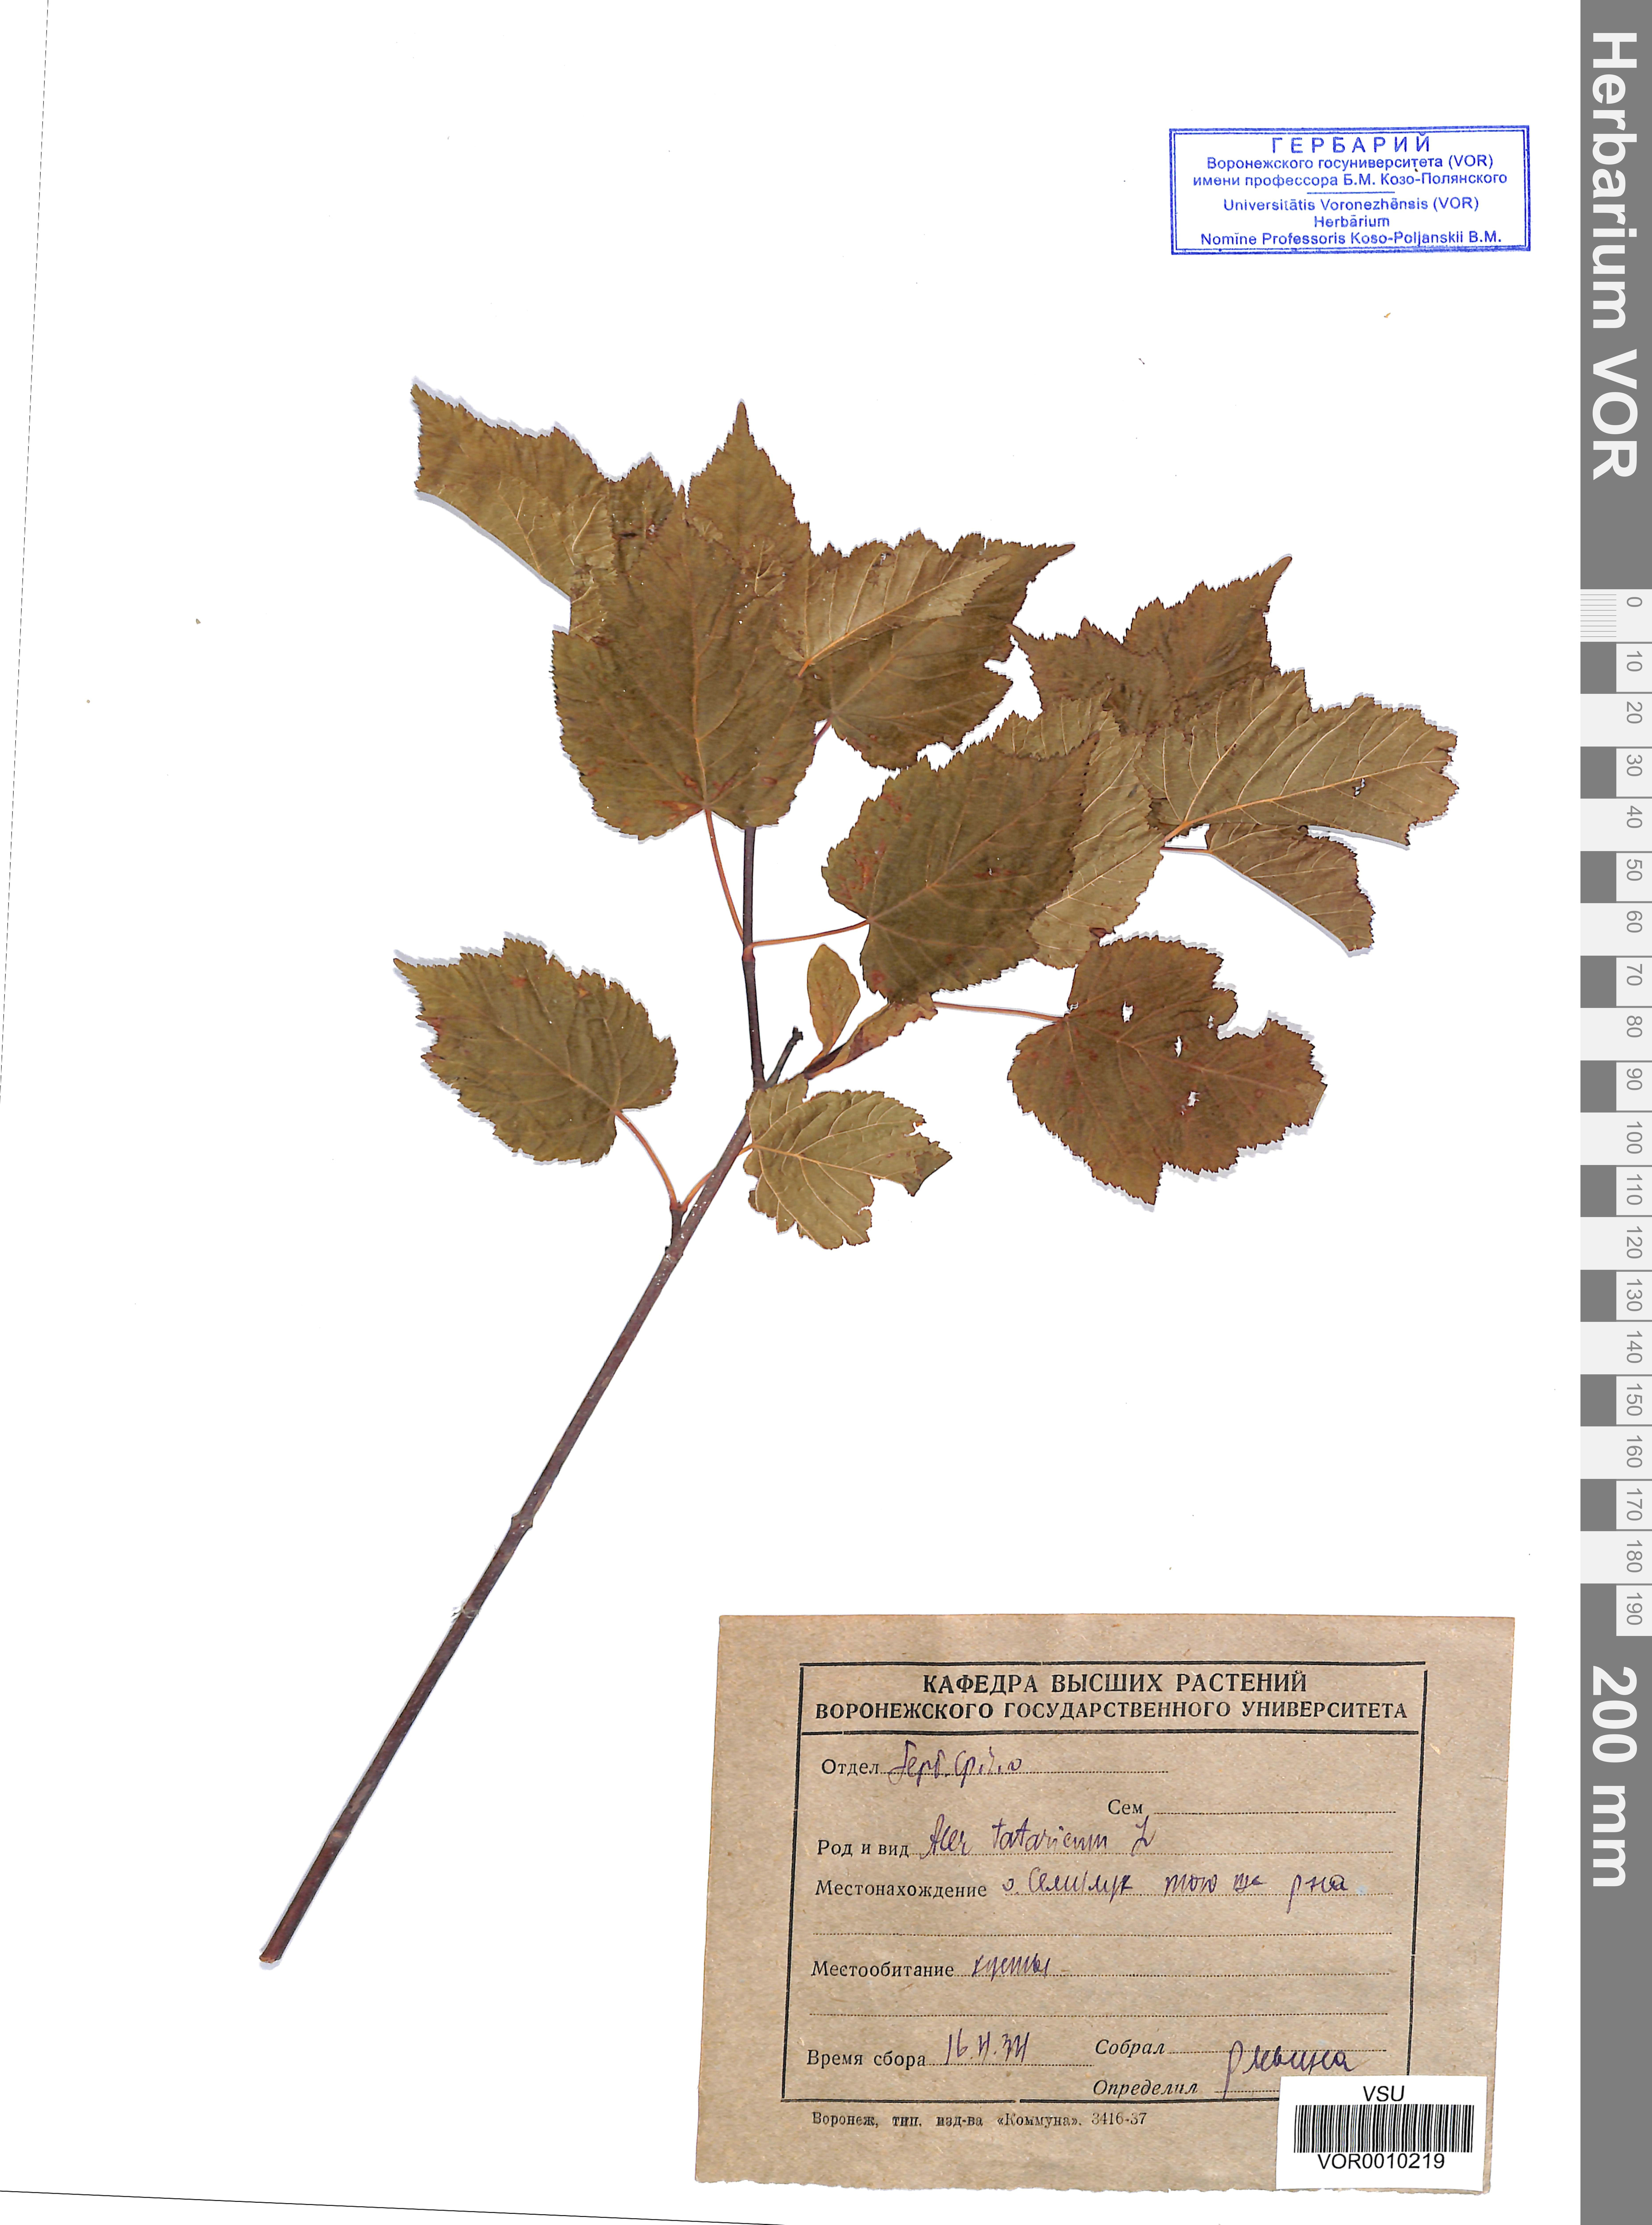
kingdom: Plantae
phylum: Tracheophyta
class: Magnoliopsida
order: Sapindales
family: Sapindaceae
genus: Acer
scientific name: Acer tataricum
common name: Tartar maple
